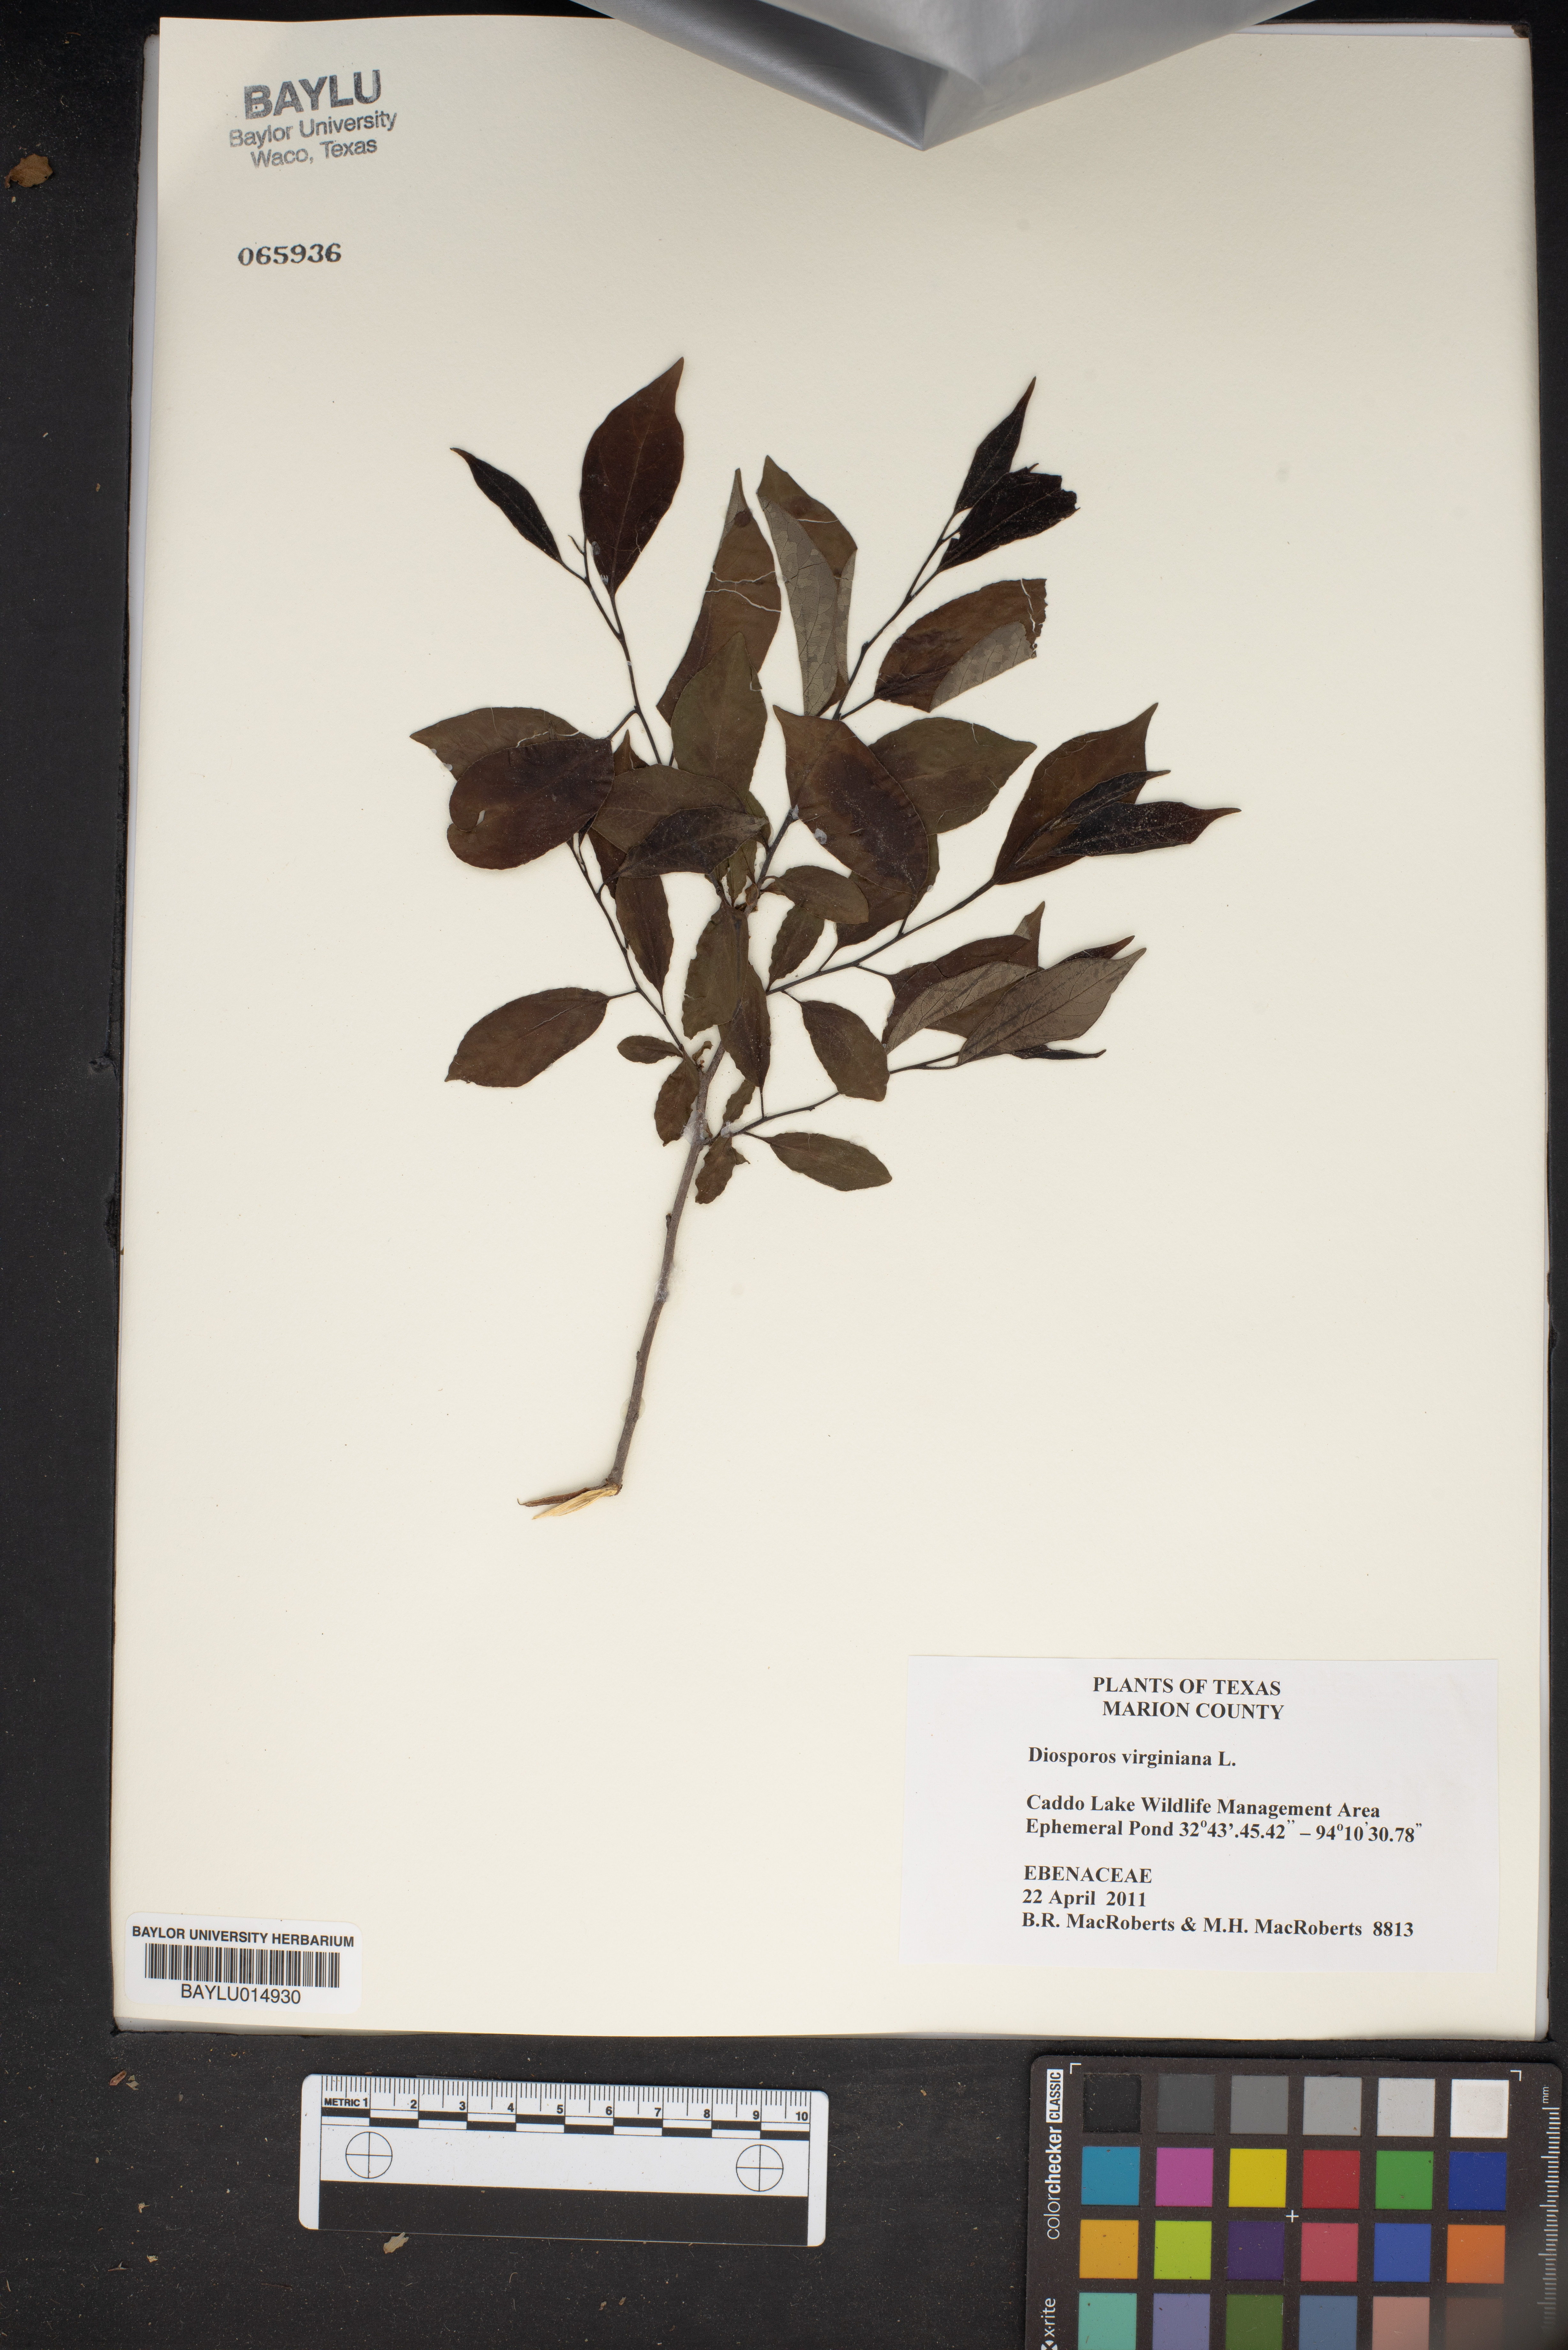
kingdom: Plantae
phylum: Tracheophyta
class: Magnoliopsida
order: Ericales
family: Ebenaceae
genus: Diospyros
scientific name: Diospyros virginiana
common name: Persimmon
